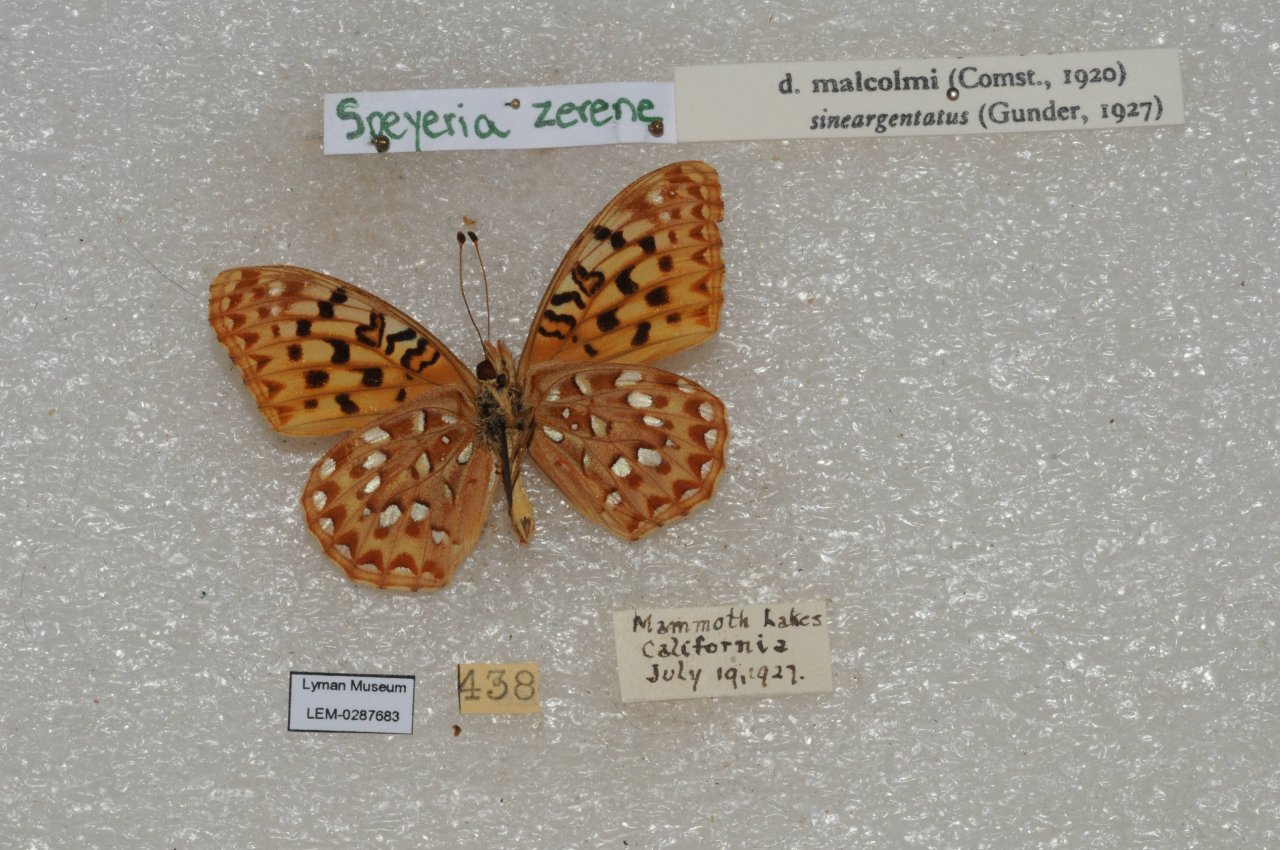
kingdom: Animalia
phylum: Arthropoda
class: Insecta
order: Lepidoptera
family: Nymphalidae
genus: Speyeria
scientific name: Speyeria zerene
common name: Zerene Fritillary
